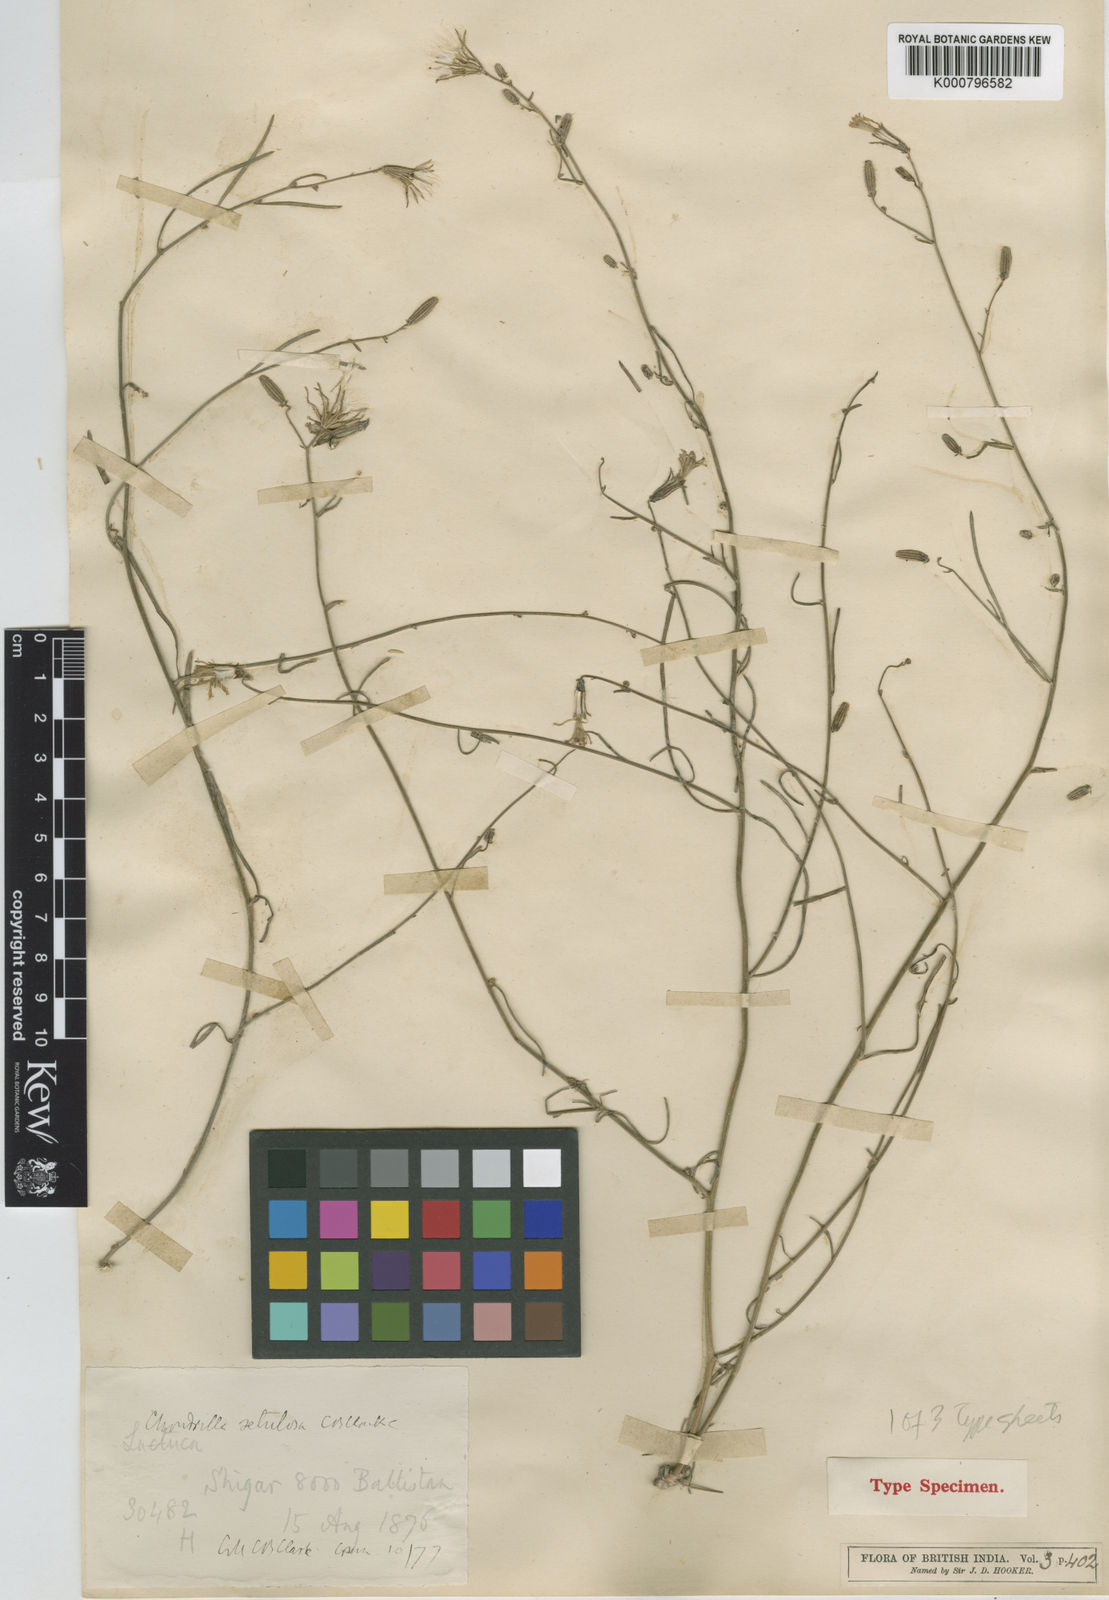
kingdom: Plantae
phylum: Tracheophyta
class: Magnoliopsida
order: Asterales
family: Asteraceae
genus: Chondrilla
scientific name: Chondrilla maracandica
